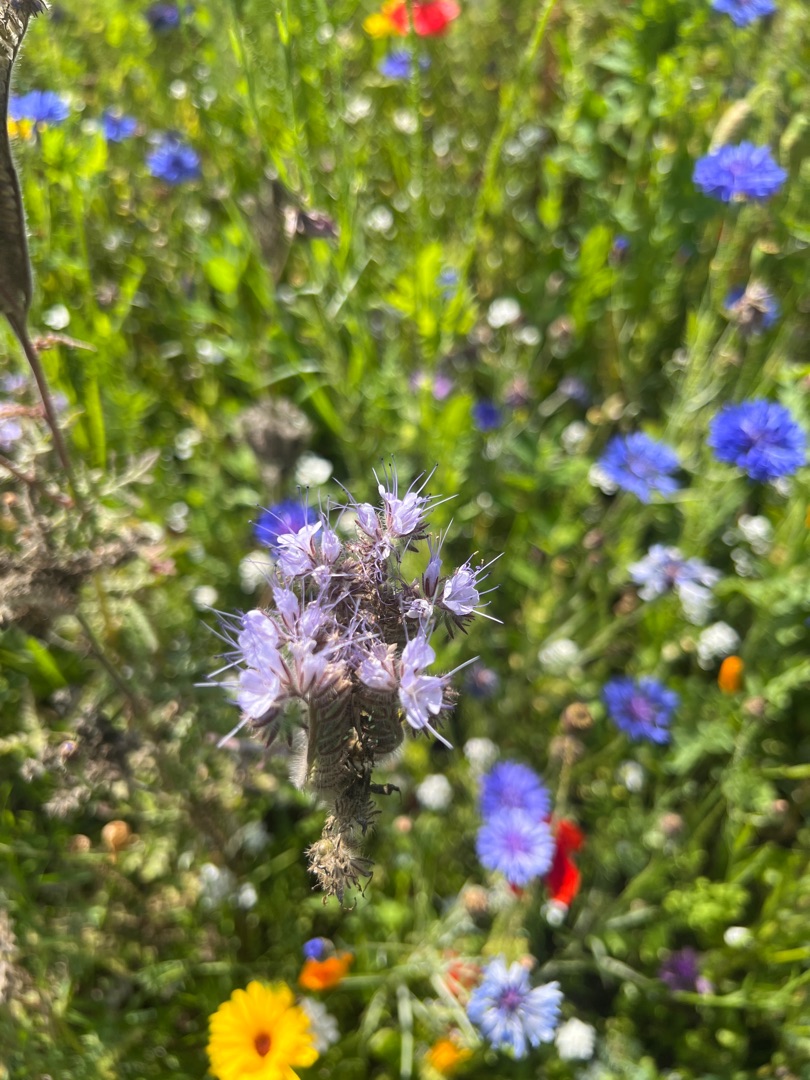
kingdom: Plantae
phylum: Tracheophyta
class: Magnoliopsida
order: Boraginales
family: Hydrophyllaceae
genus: Phacelia
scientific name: Phacelia tanacetifolia
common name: Honningurt
